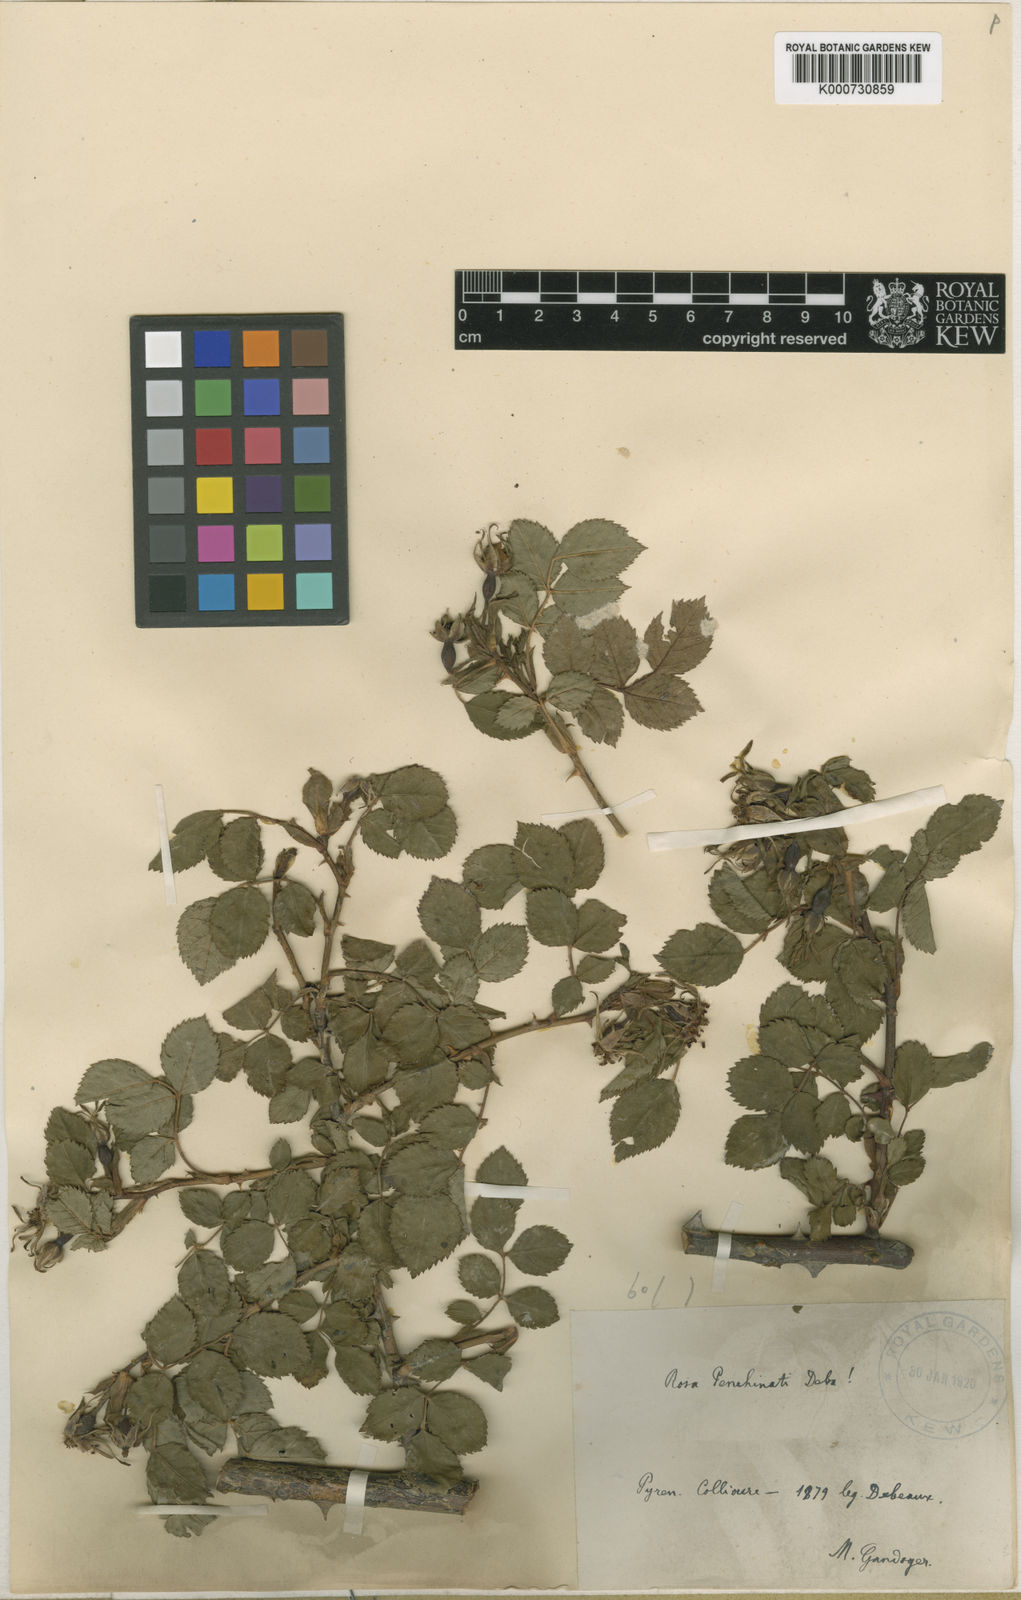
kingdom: Plantae
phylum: Tracheophyta
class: Magnoliopsida
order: Rosales
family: Rosaceae
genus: Rosa
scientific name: Rosa
